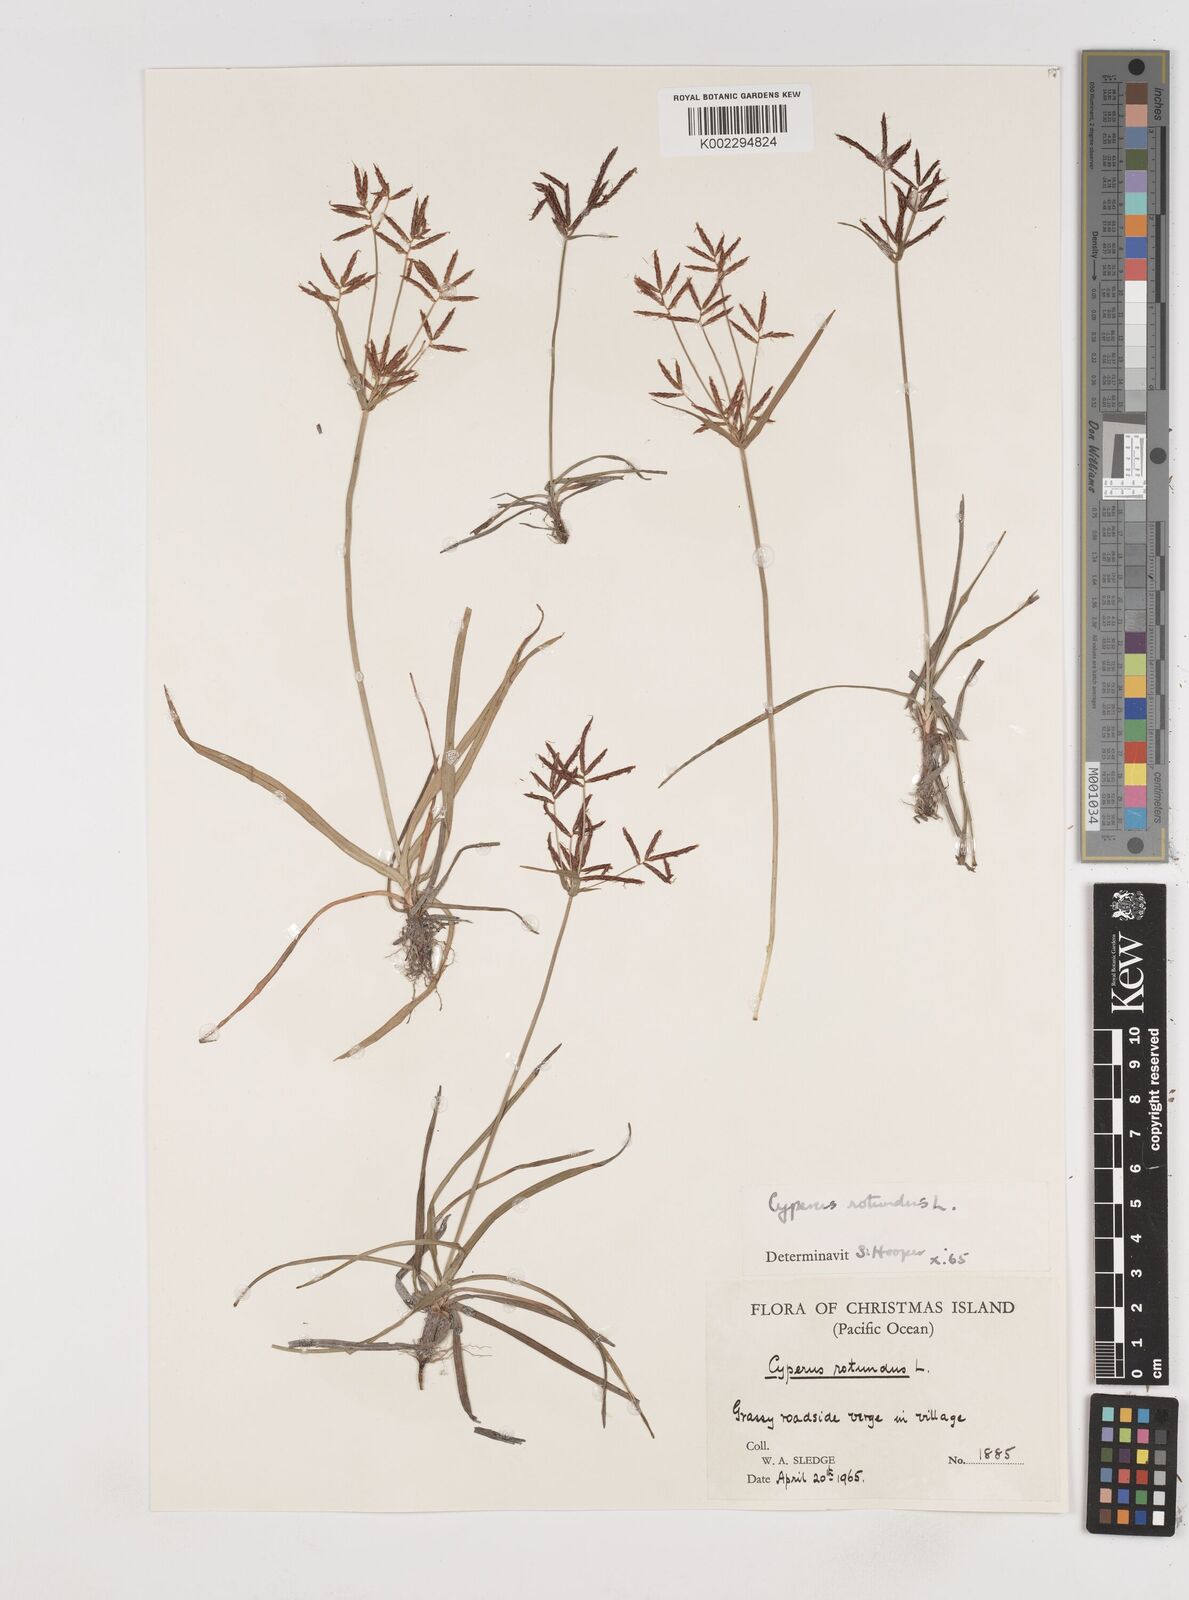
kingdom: Plantae
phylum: Tracheophyta
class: Liliopsida
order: Poales
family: Cyperaceae
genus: Cyperus
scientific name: Cyperus rotundus
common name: Nutgrass
